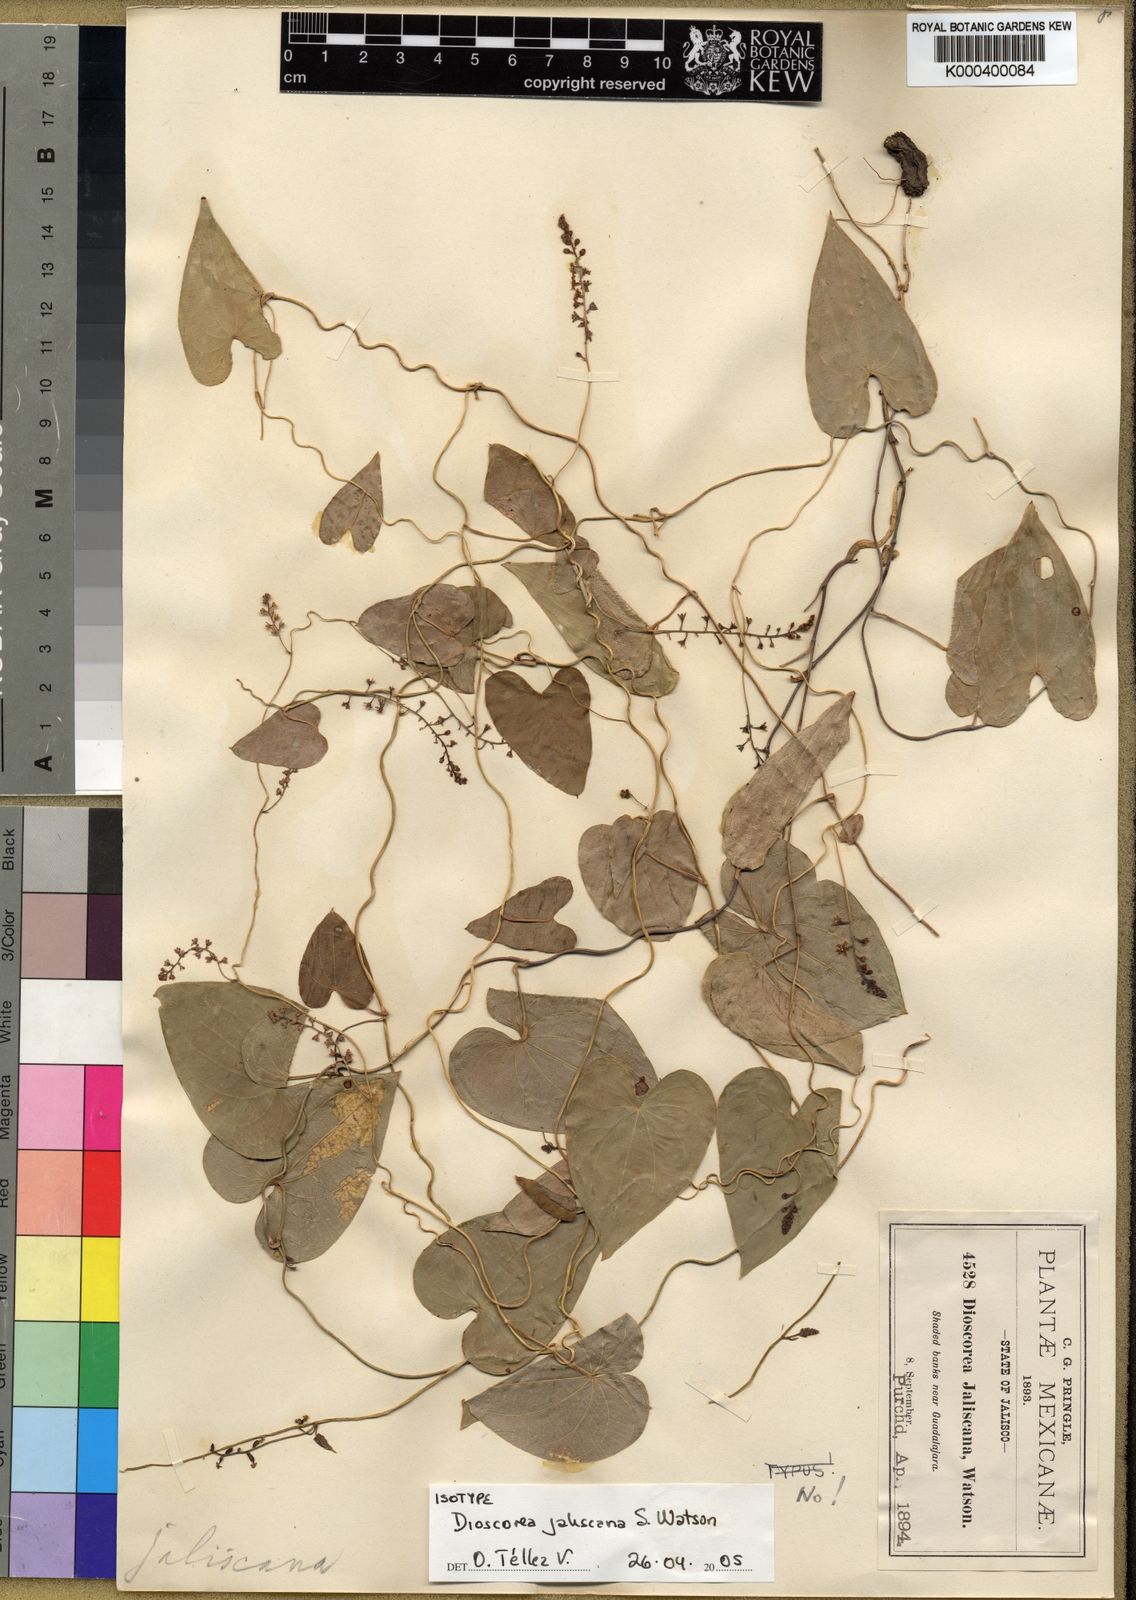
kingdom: Plantae
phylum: Tracheophyta
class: Liliopsida
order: Dioscoreales
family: Dioscoreaceae
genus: Dioscorea
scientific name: Dioscorea jaliscana
